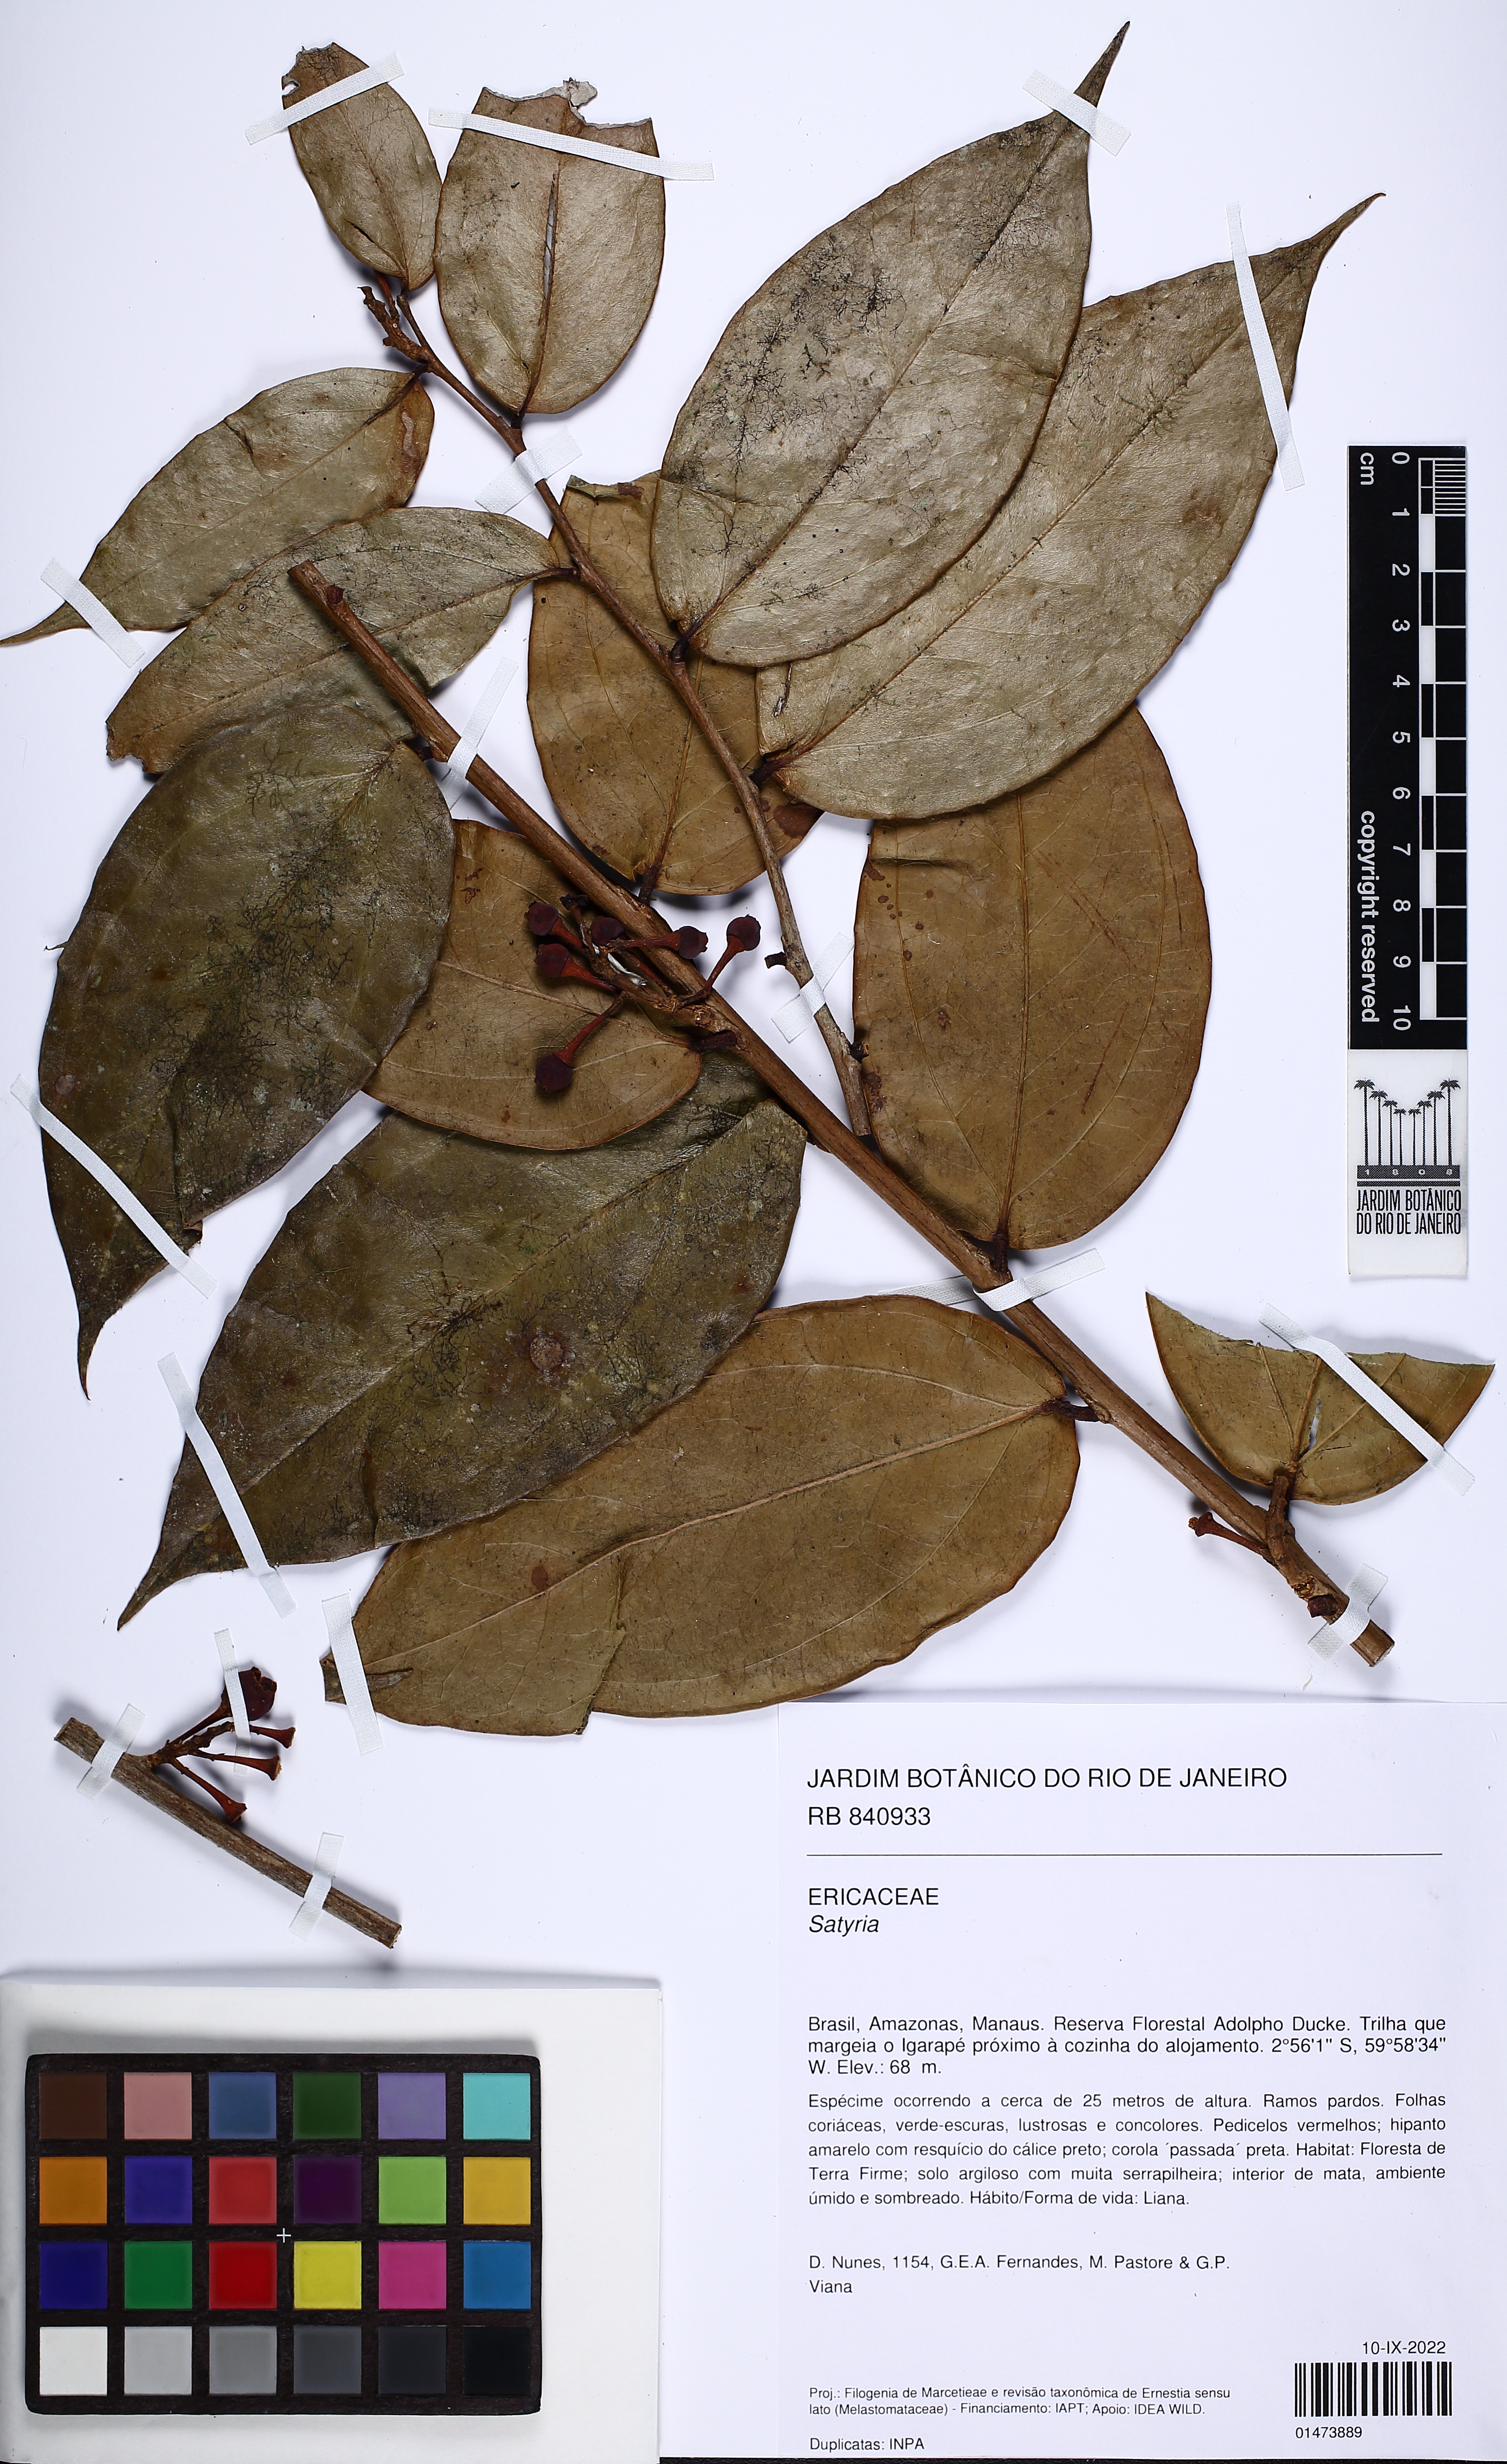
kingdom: Plantae
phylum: Tracheophyta
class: Magnoliopsida
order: Ericales
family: Ericaceae
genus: Satyria
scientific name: Satyria
